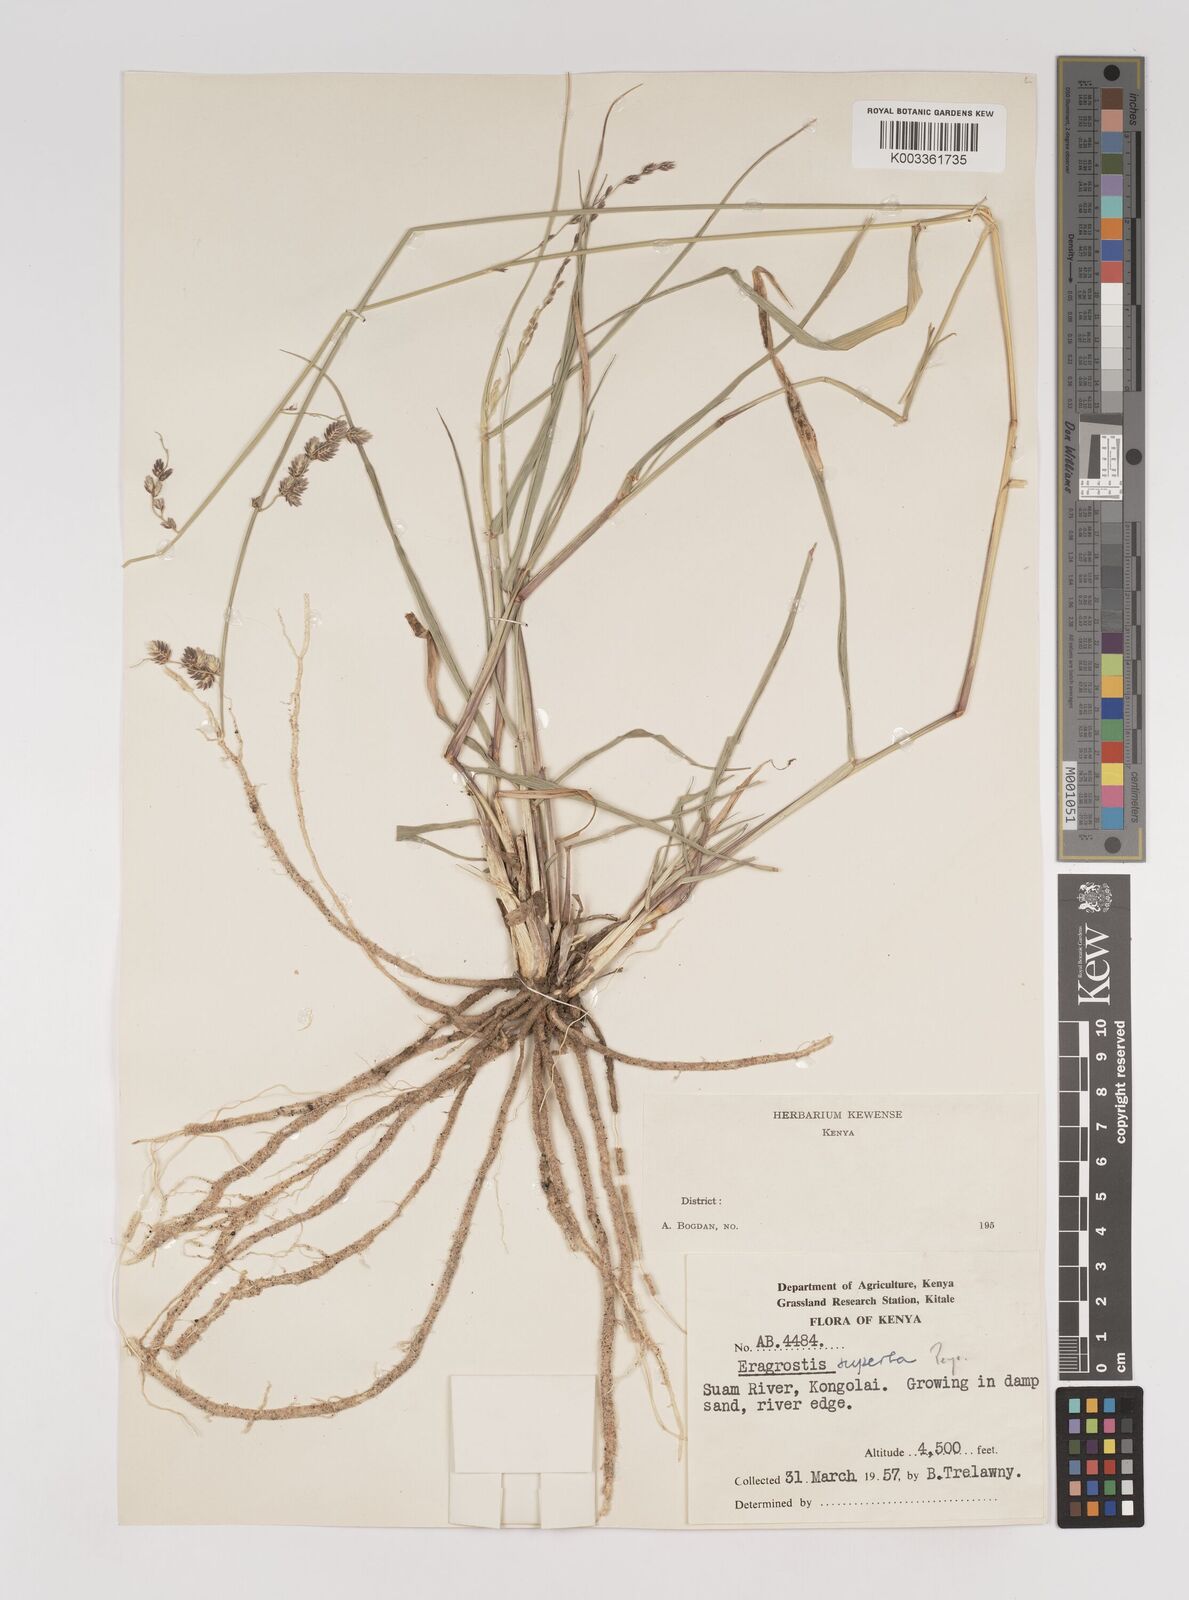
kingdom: Plantae
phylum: Tracheophyta
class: Liliopsida
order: Poales
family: Poaceae
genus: Eragrostis
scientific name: Eragrostis superba
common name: Wilman lovegrass
